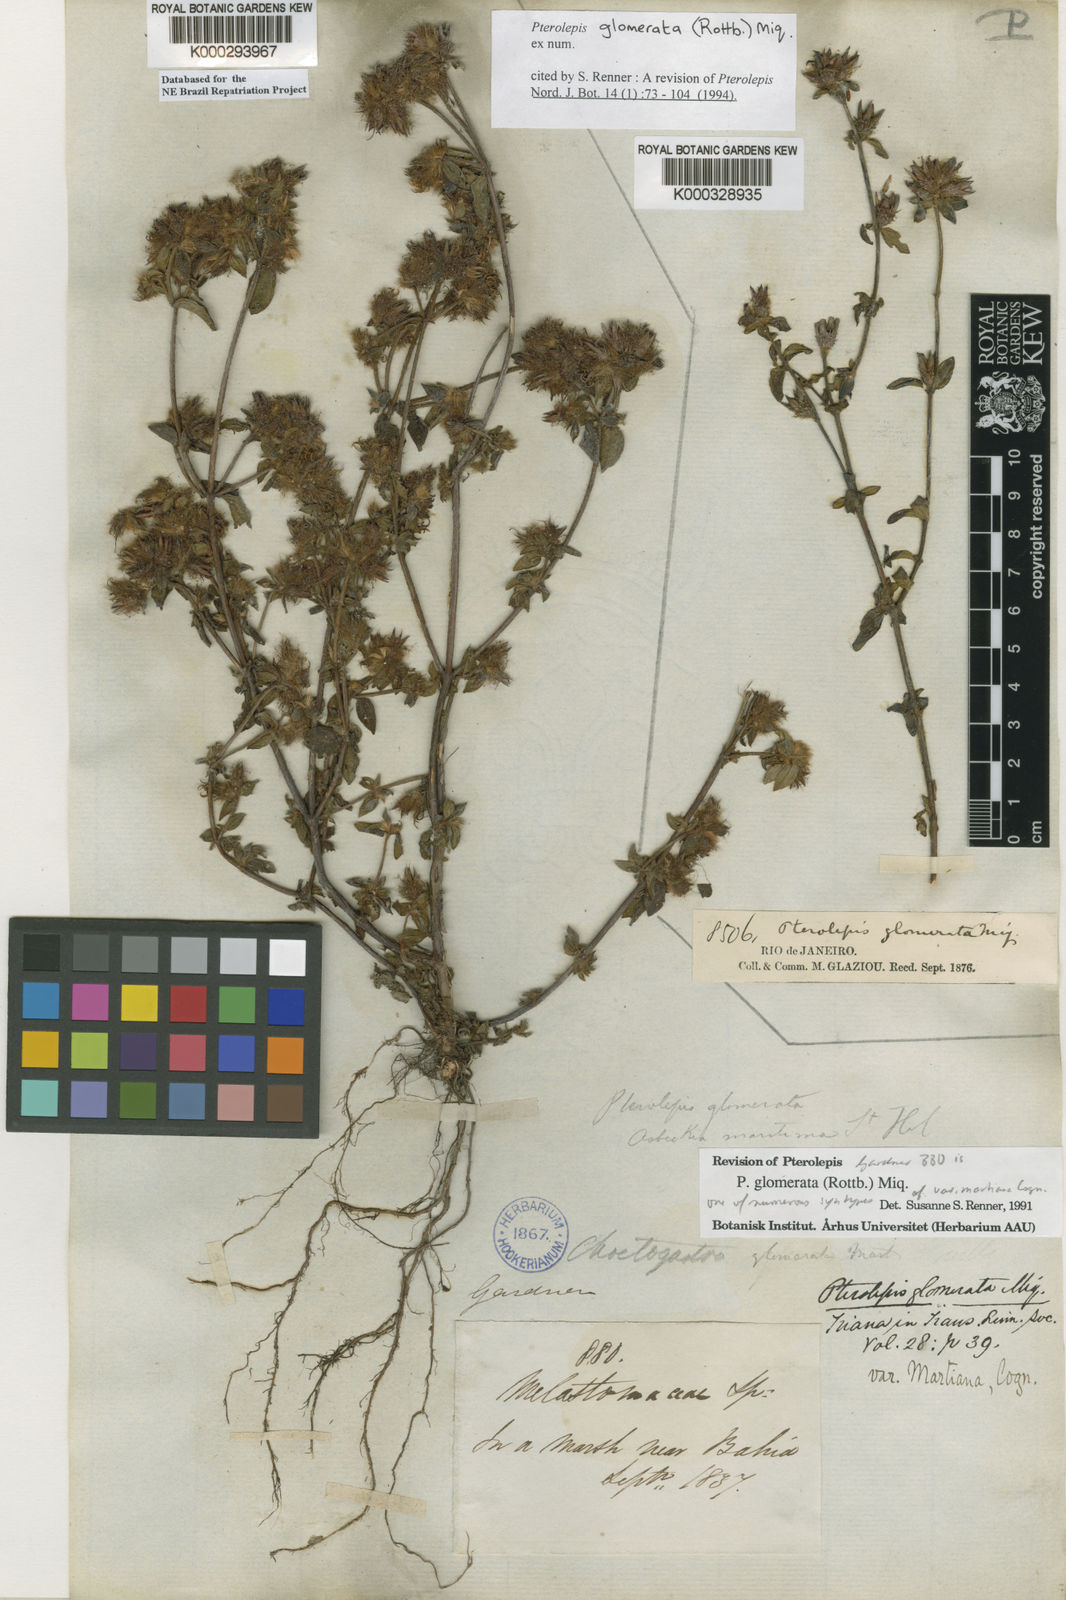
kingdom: Plantae
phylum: Tracheophyta
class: Magnoliopsida
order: Myrtales
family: Melastomataceae
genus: Pterolepis
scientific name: Pterolepis glomerata
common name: False meadowbeauty
